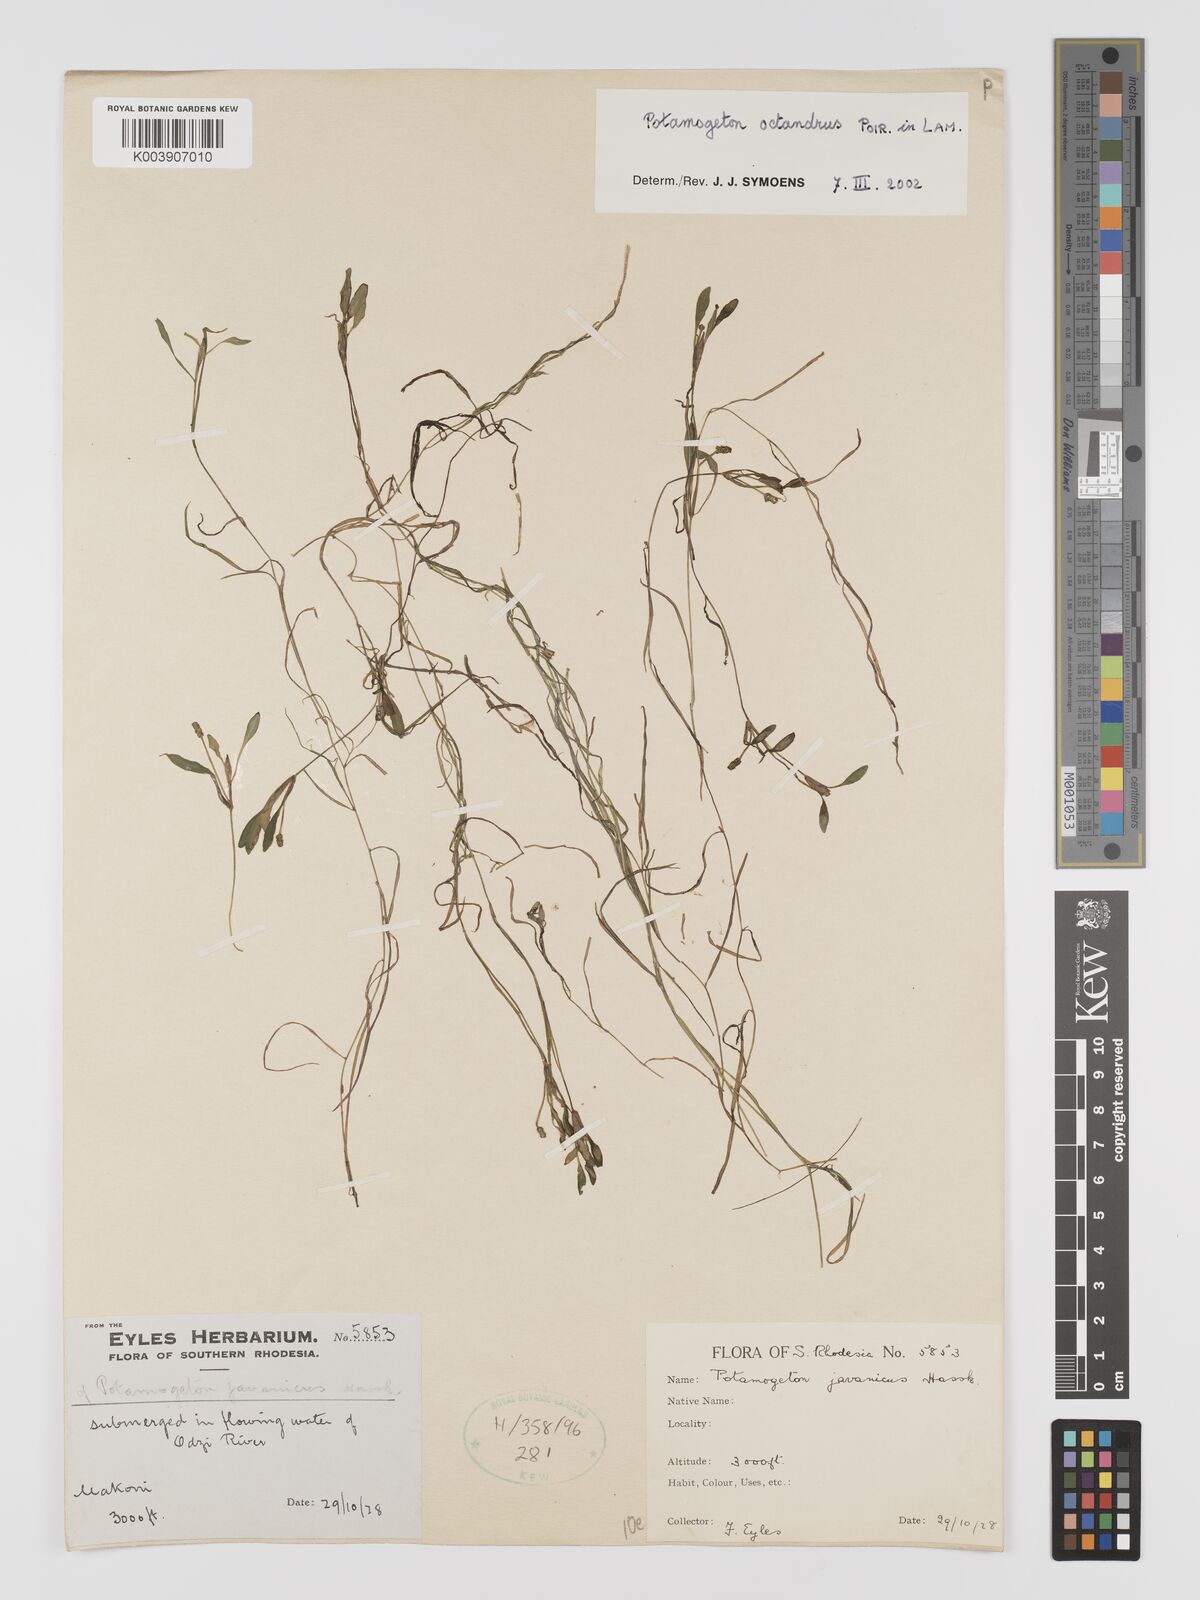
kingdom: Plantae
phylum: Tracheophyta
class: Liliopsida
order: Alismatales
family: Potamogetonaceae
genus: Potamogeton
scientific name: Potamogeton octandrus
